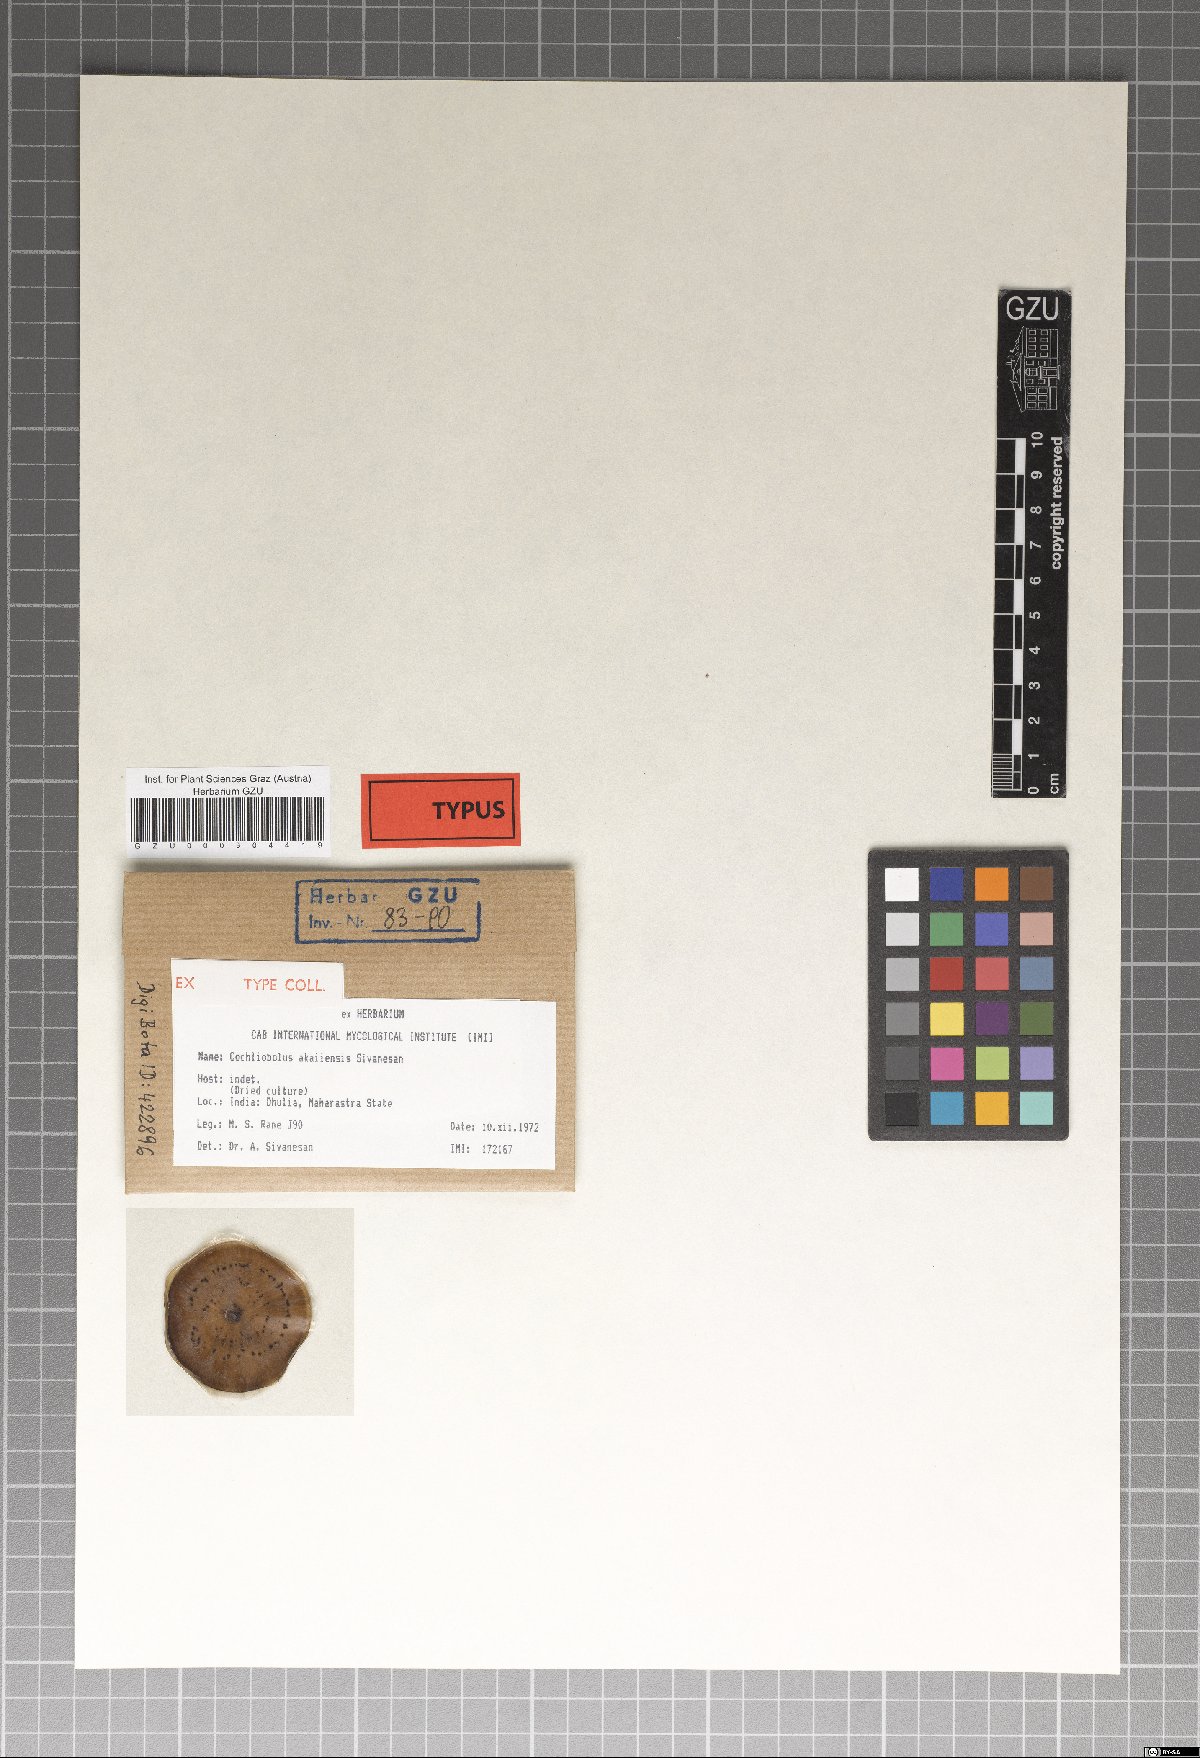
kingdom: Fungi
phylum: Ascomycota
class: Dothideomycetes
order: Pleosporales
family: Pleosporaceae
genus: Cochliobolus
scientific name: Cochliobolus akaiiensis
